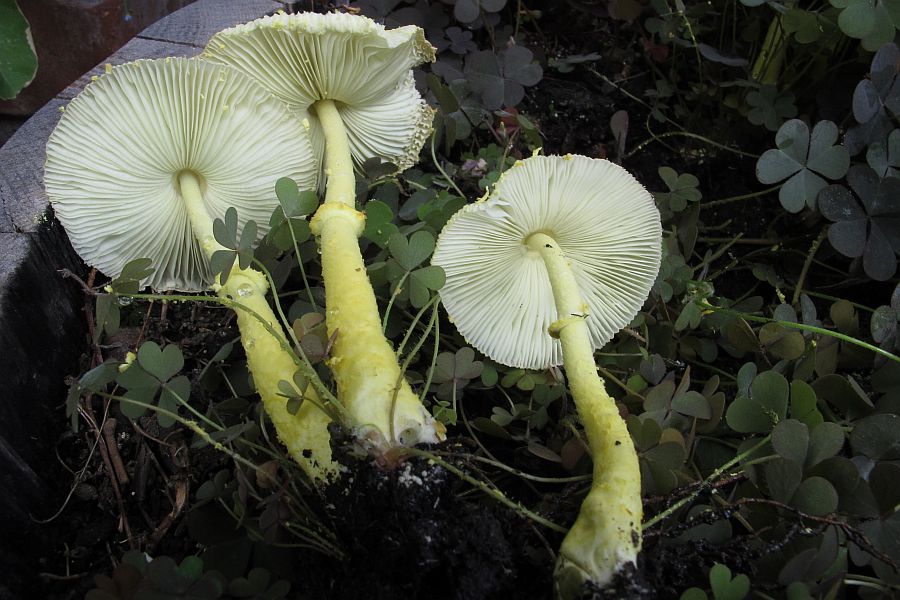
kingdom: Fungi
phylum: Basidiomycota
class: Agaricomycetes
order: Agaricales
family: Agaricaceae
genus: Leucocoprinus
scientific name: Leucocoprinus birnbaumii
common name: gul silkehat
